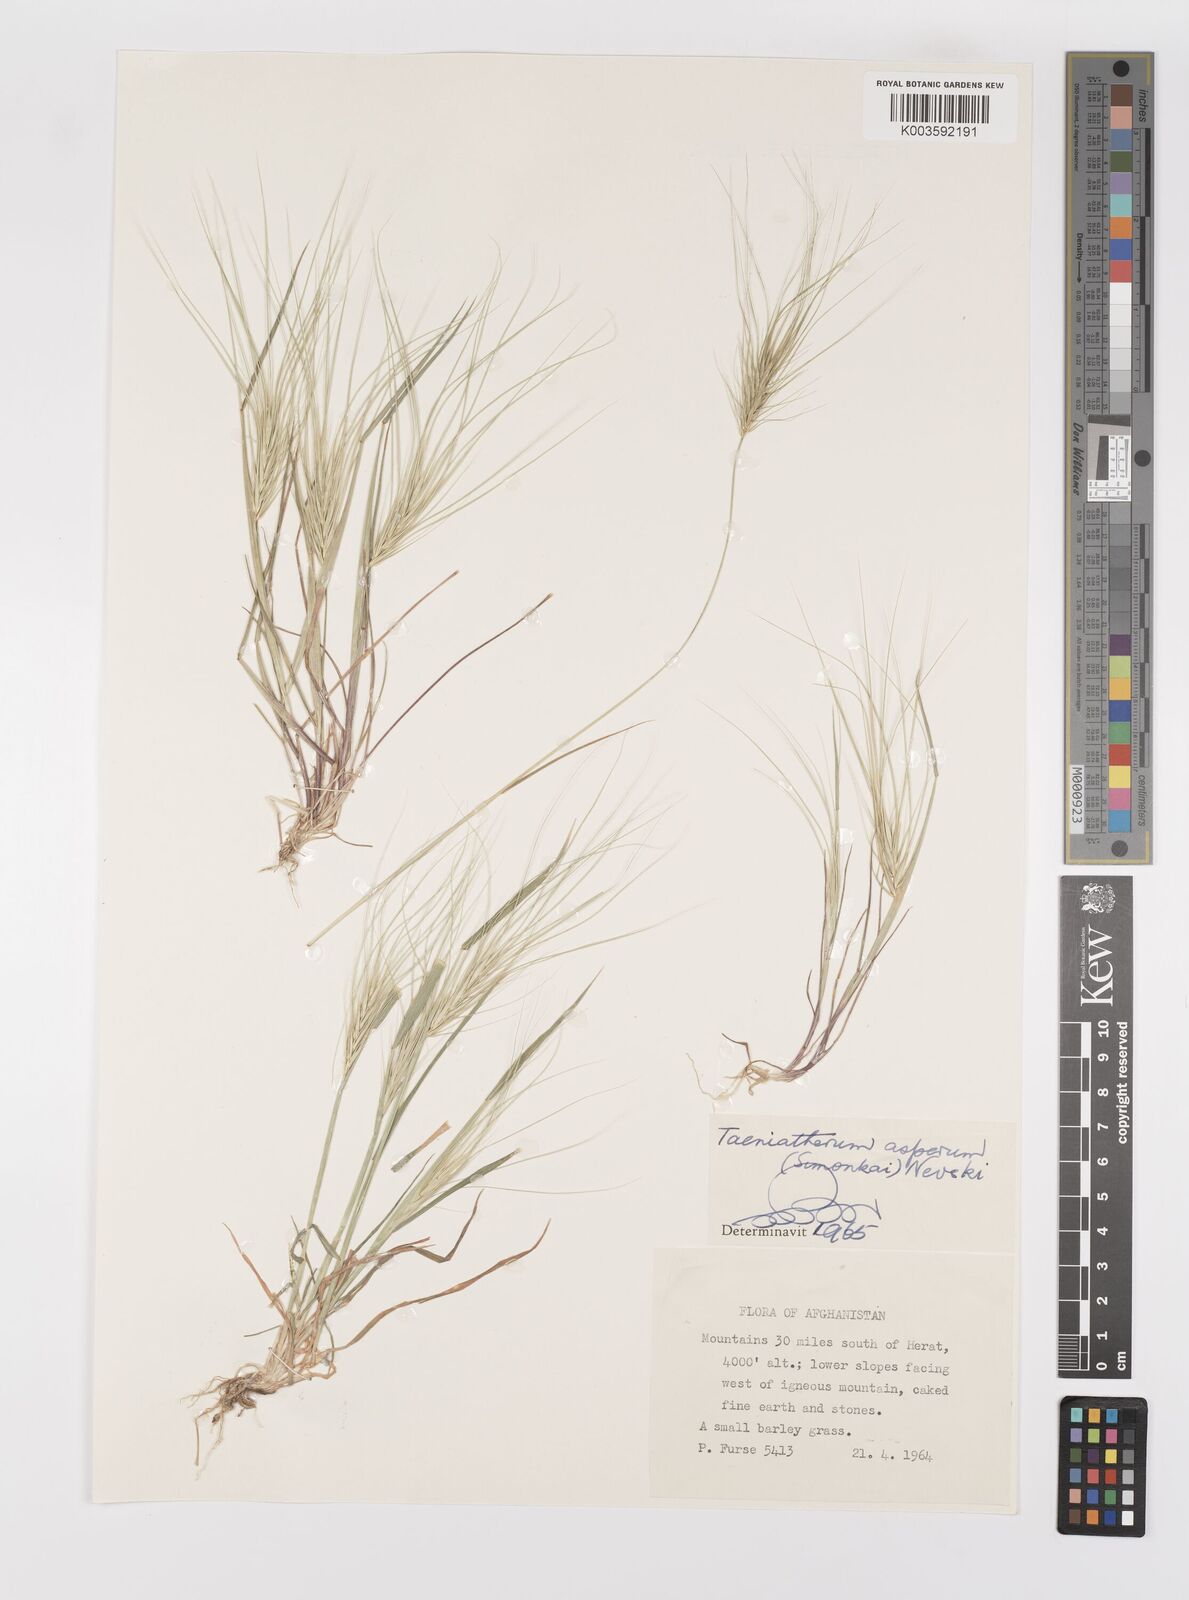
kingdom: Plantae
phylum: Tracheophyta
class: Liliopsida
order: Poales
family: Poaceae
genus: Taeniatherum
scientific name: Taeniatherum caput-medusae
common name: Medusahead
